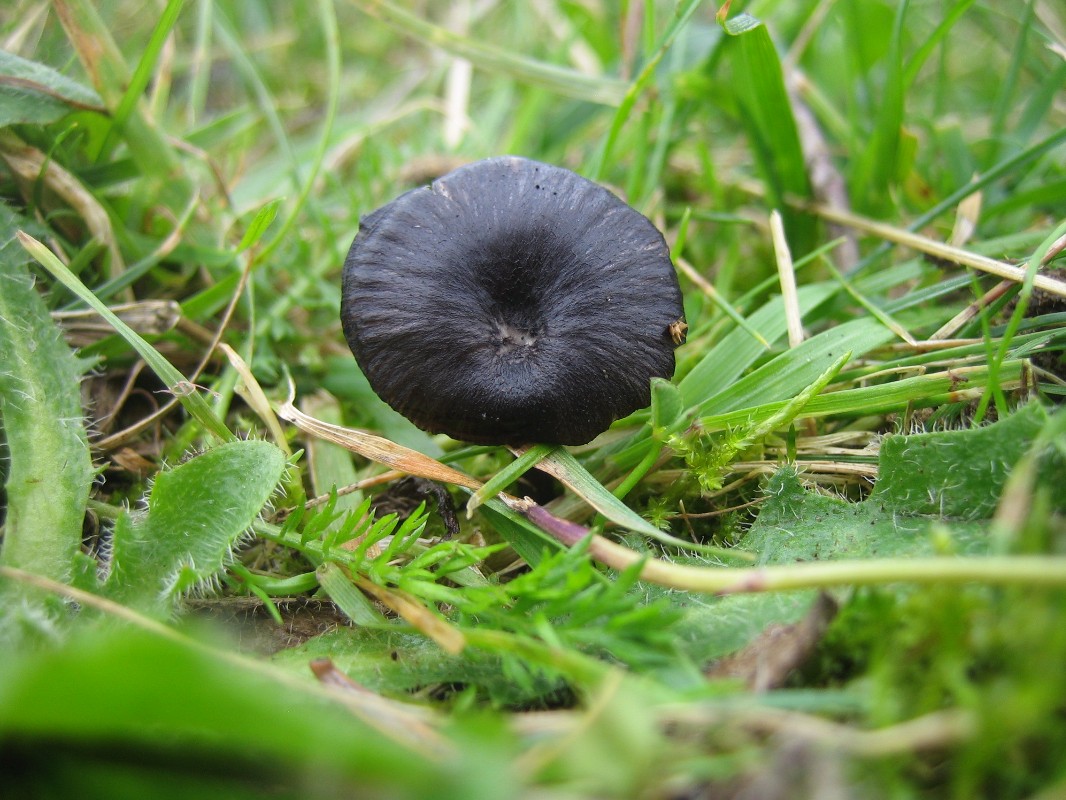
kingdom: Fungi
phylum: Basidiomycota
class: Agaricomycetes
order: Agaricales
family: Entolomataceae
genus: Entoloma
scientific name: Entoloma
